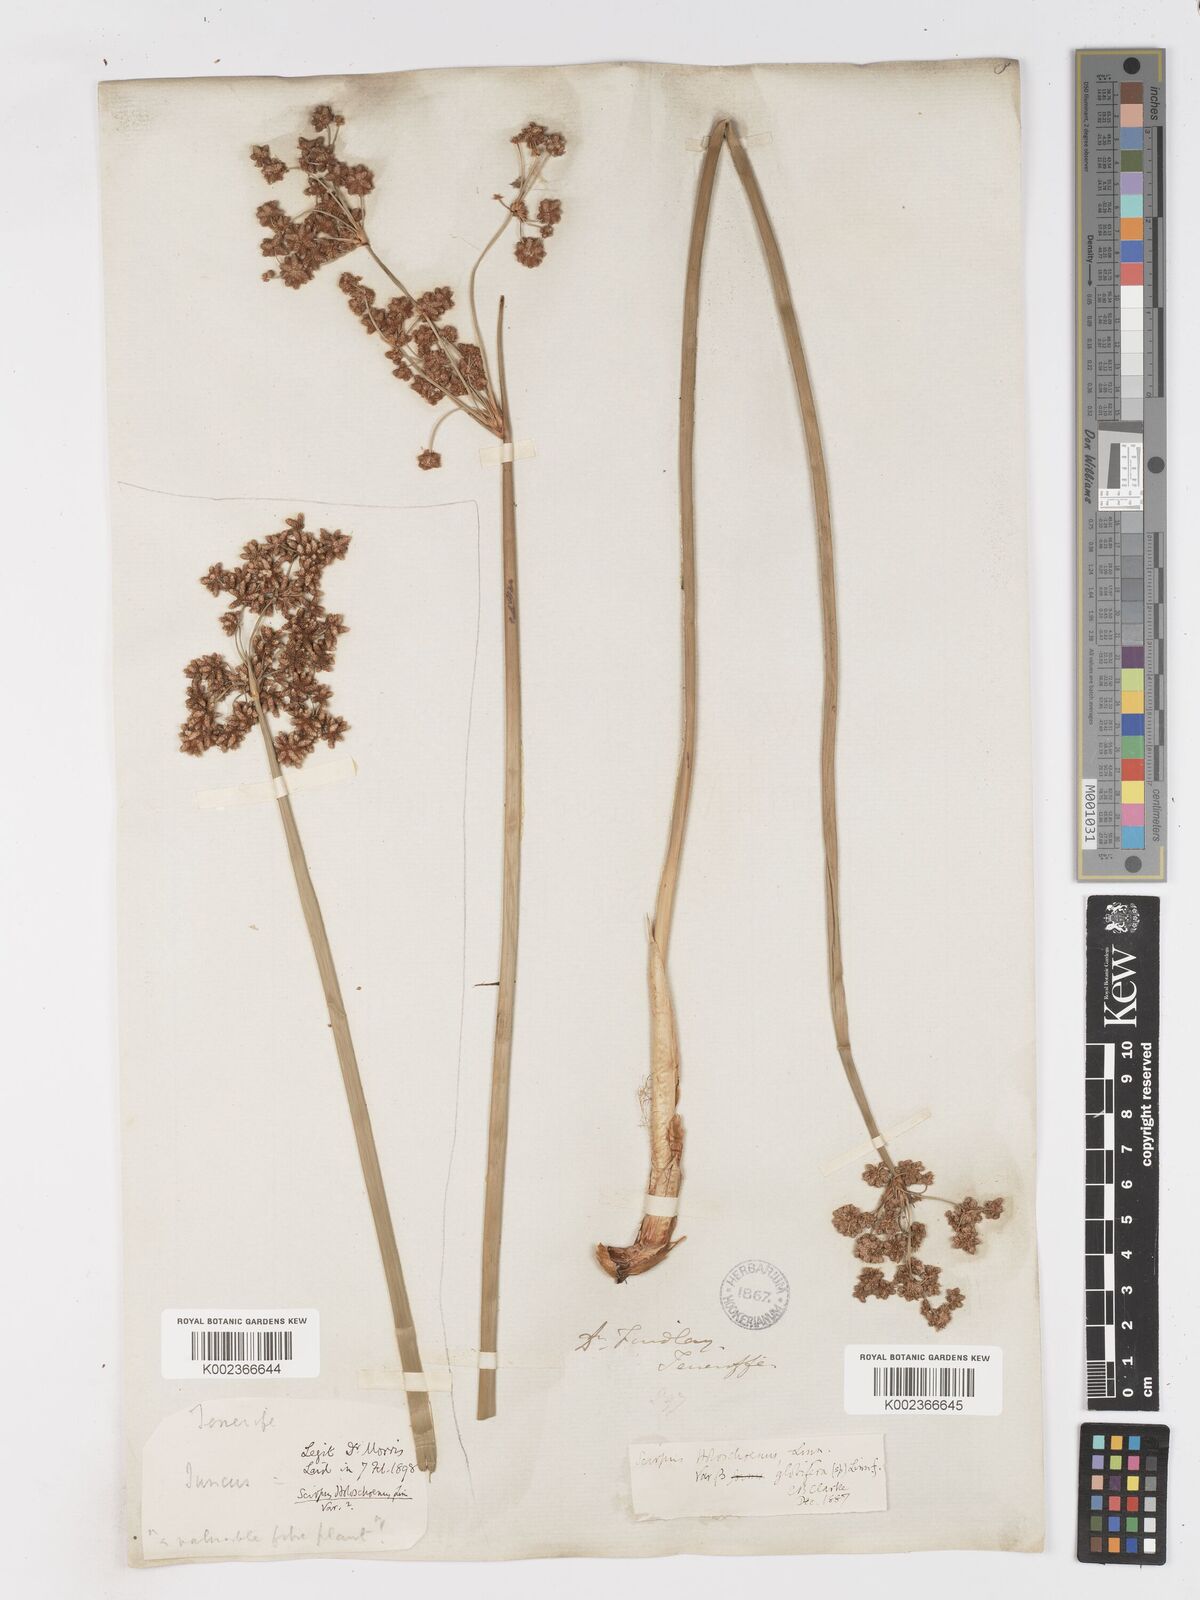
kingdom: Plantae
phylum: Tracheophyta
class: Liliopsida
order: Poales
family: Cyperaceae
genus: Scirpoides
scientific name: Scirpoides holoschoenus
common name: Round-headed club-rush
